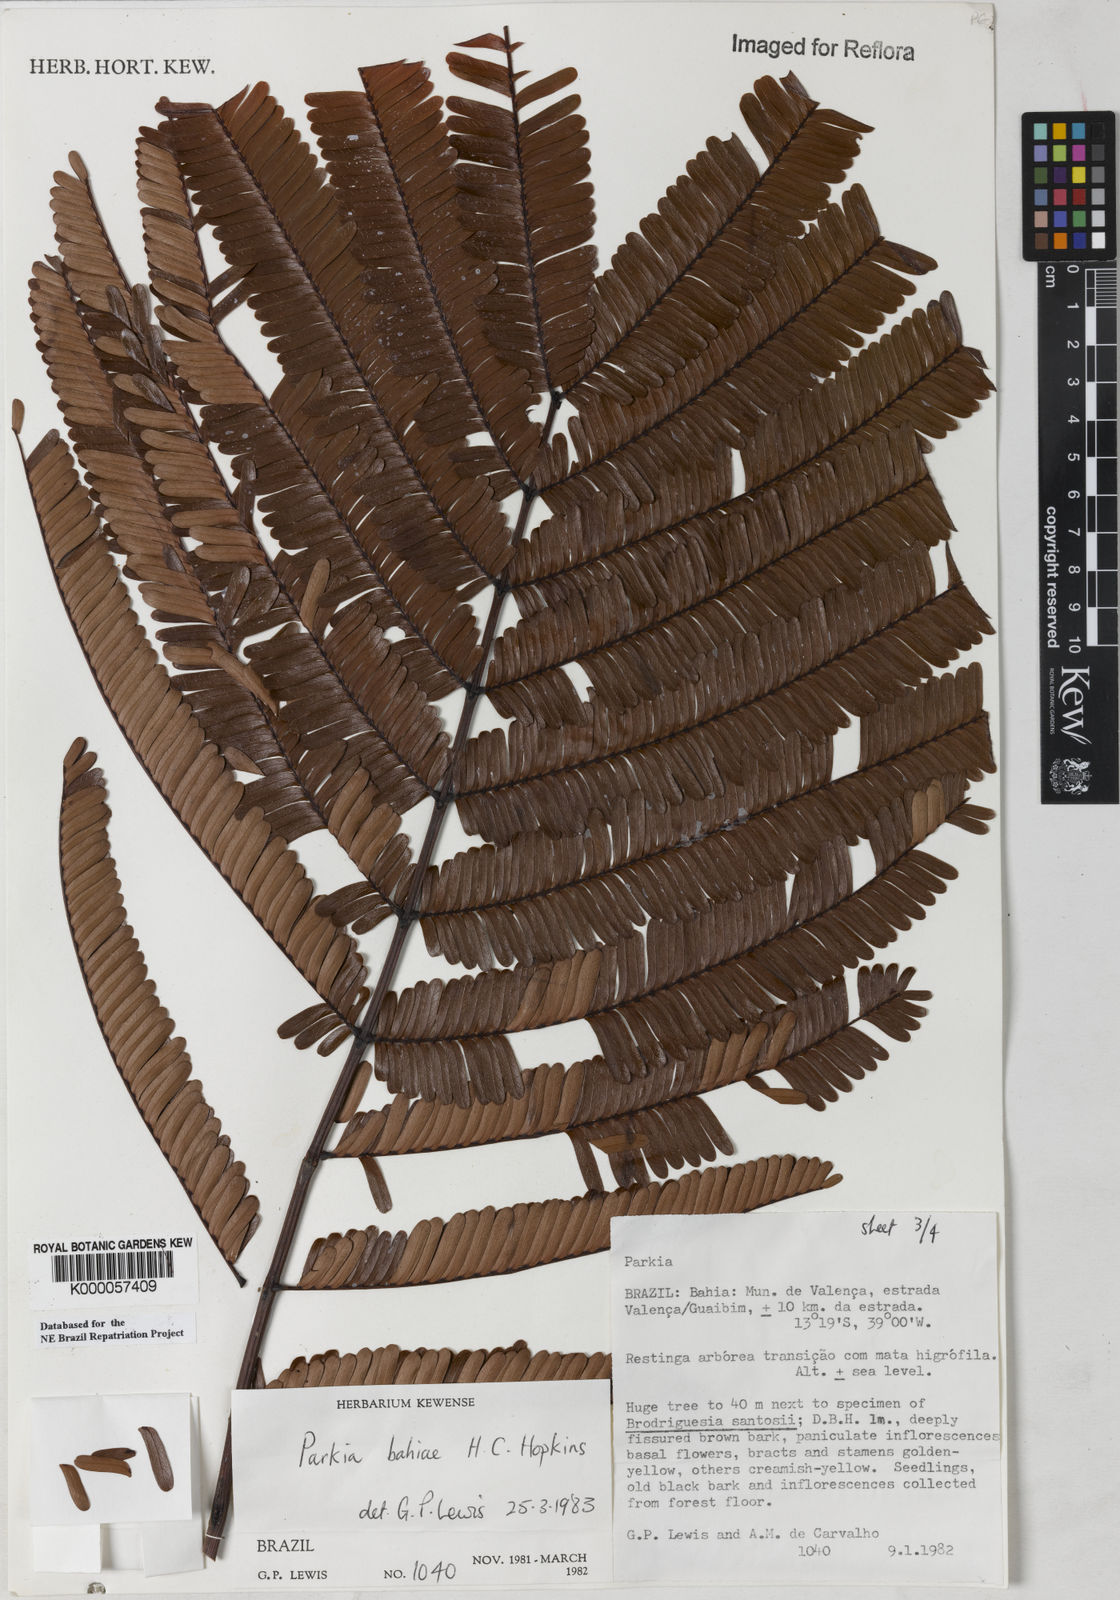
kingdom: Plantae
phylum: Tracheophyta
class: Magnoliopsida
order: Fabales
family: Fabaceae
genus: Parkia
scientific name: Parkia bahiae
